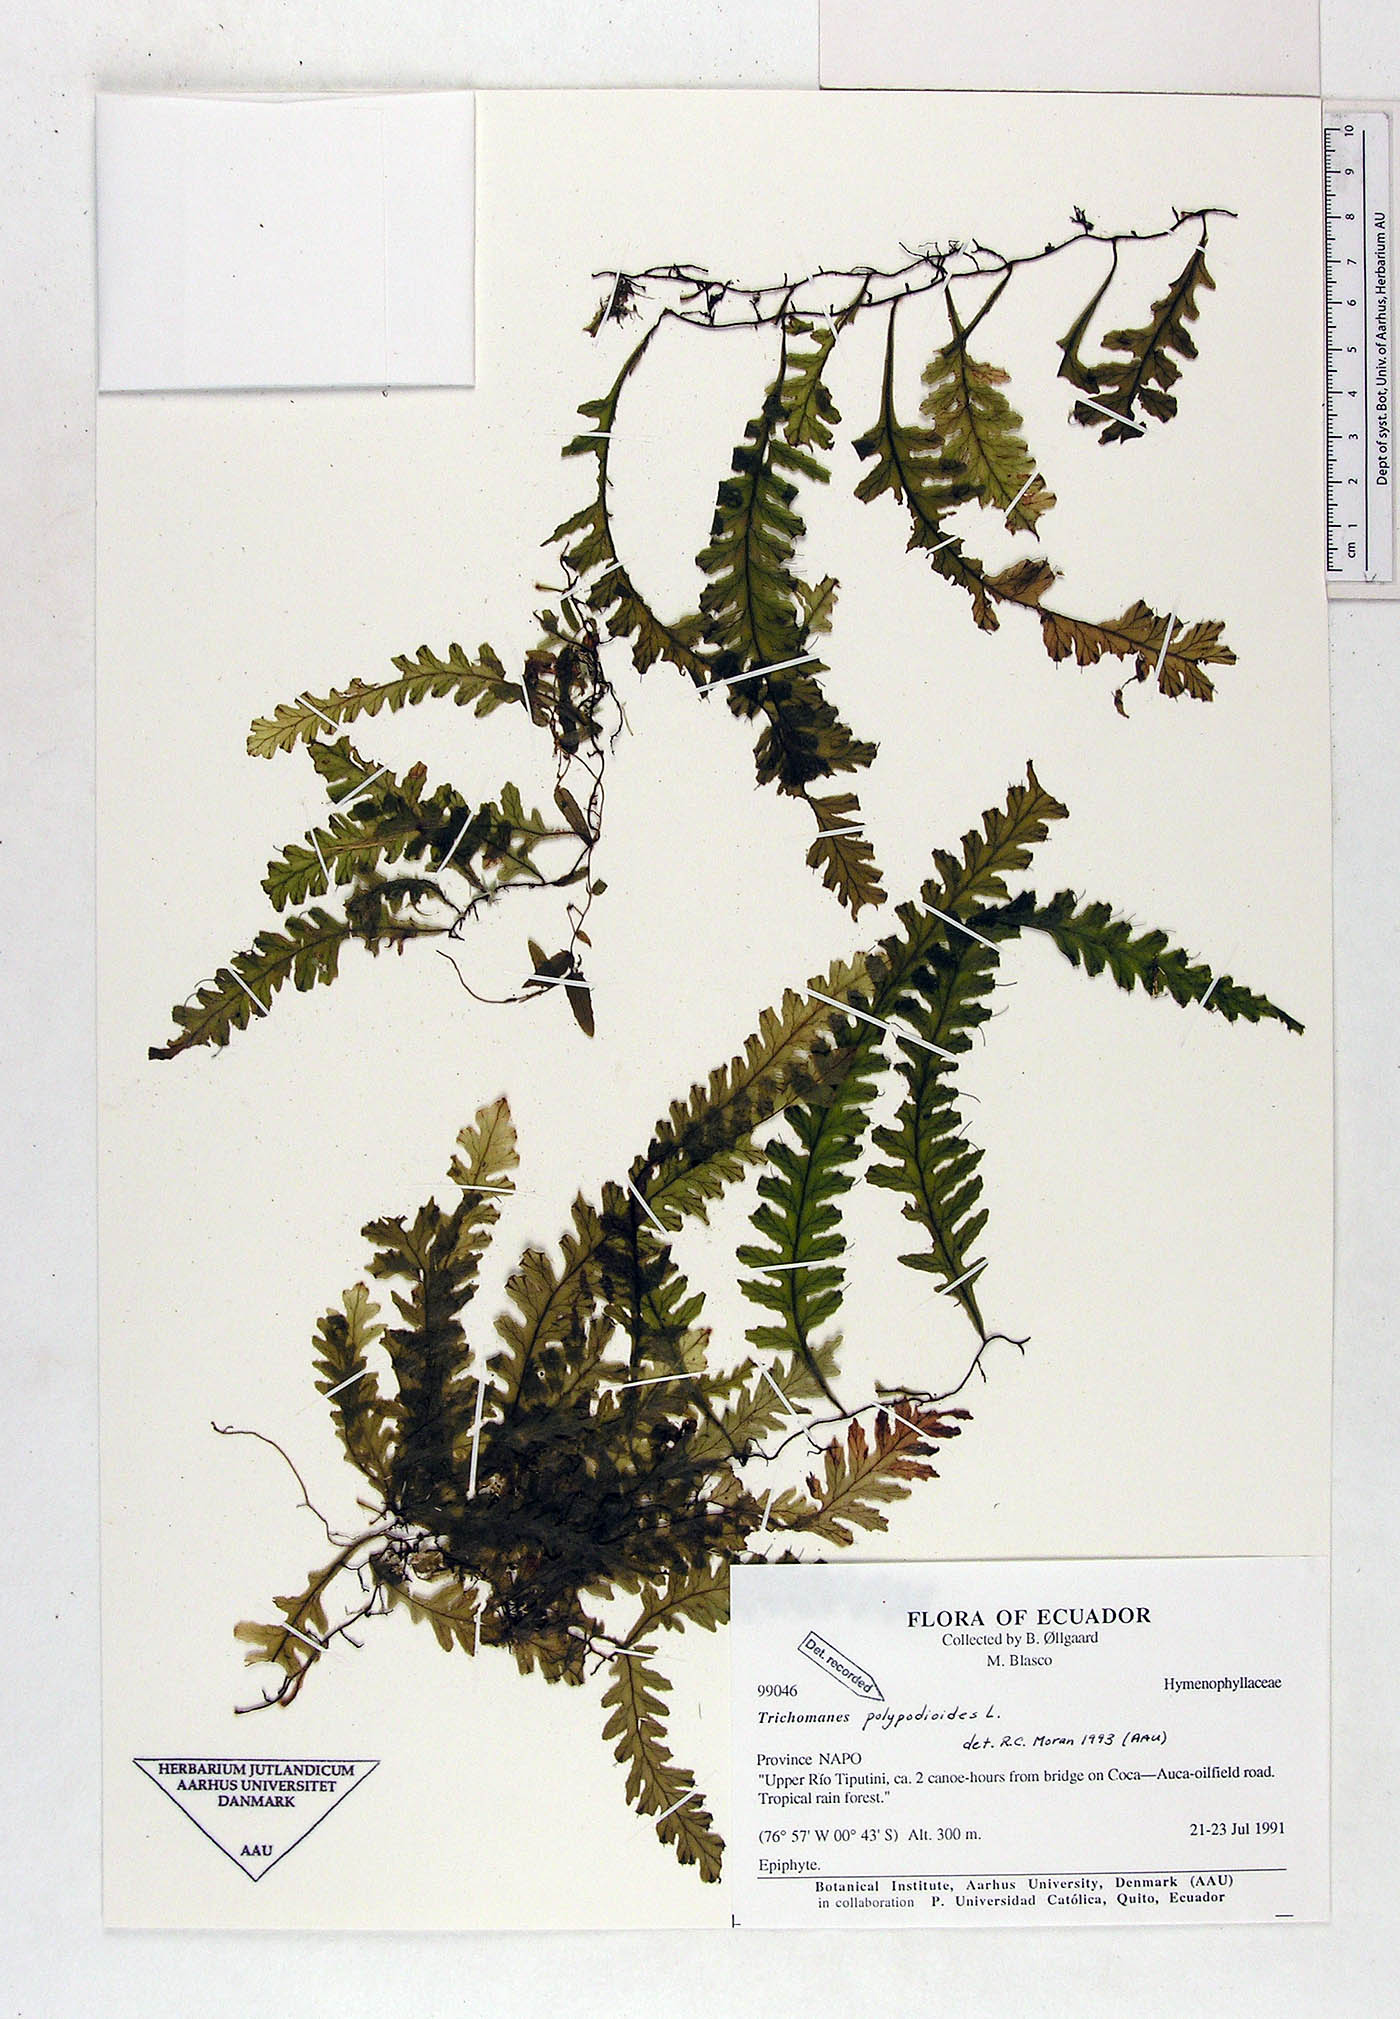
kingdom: Plantae
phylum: Tracheophyta
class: Polypodiopsida
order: Hymenophyllales
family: Hymenophyllaceae
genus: Trichomanes
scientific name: Trichomanes polypodioides
